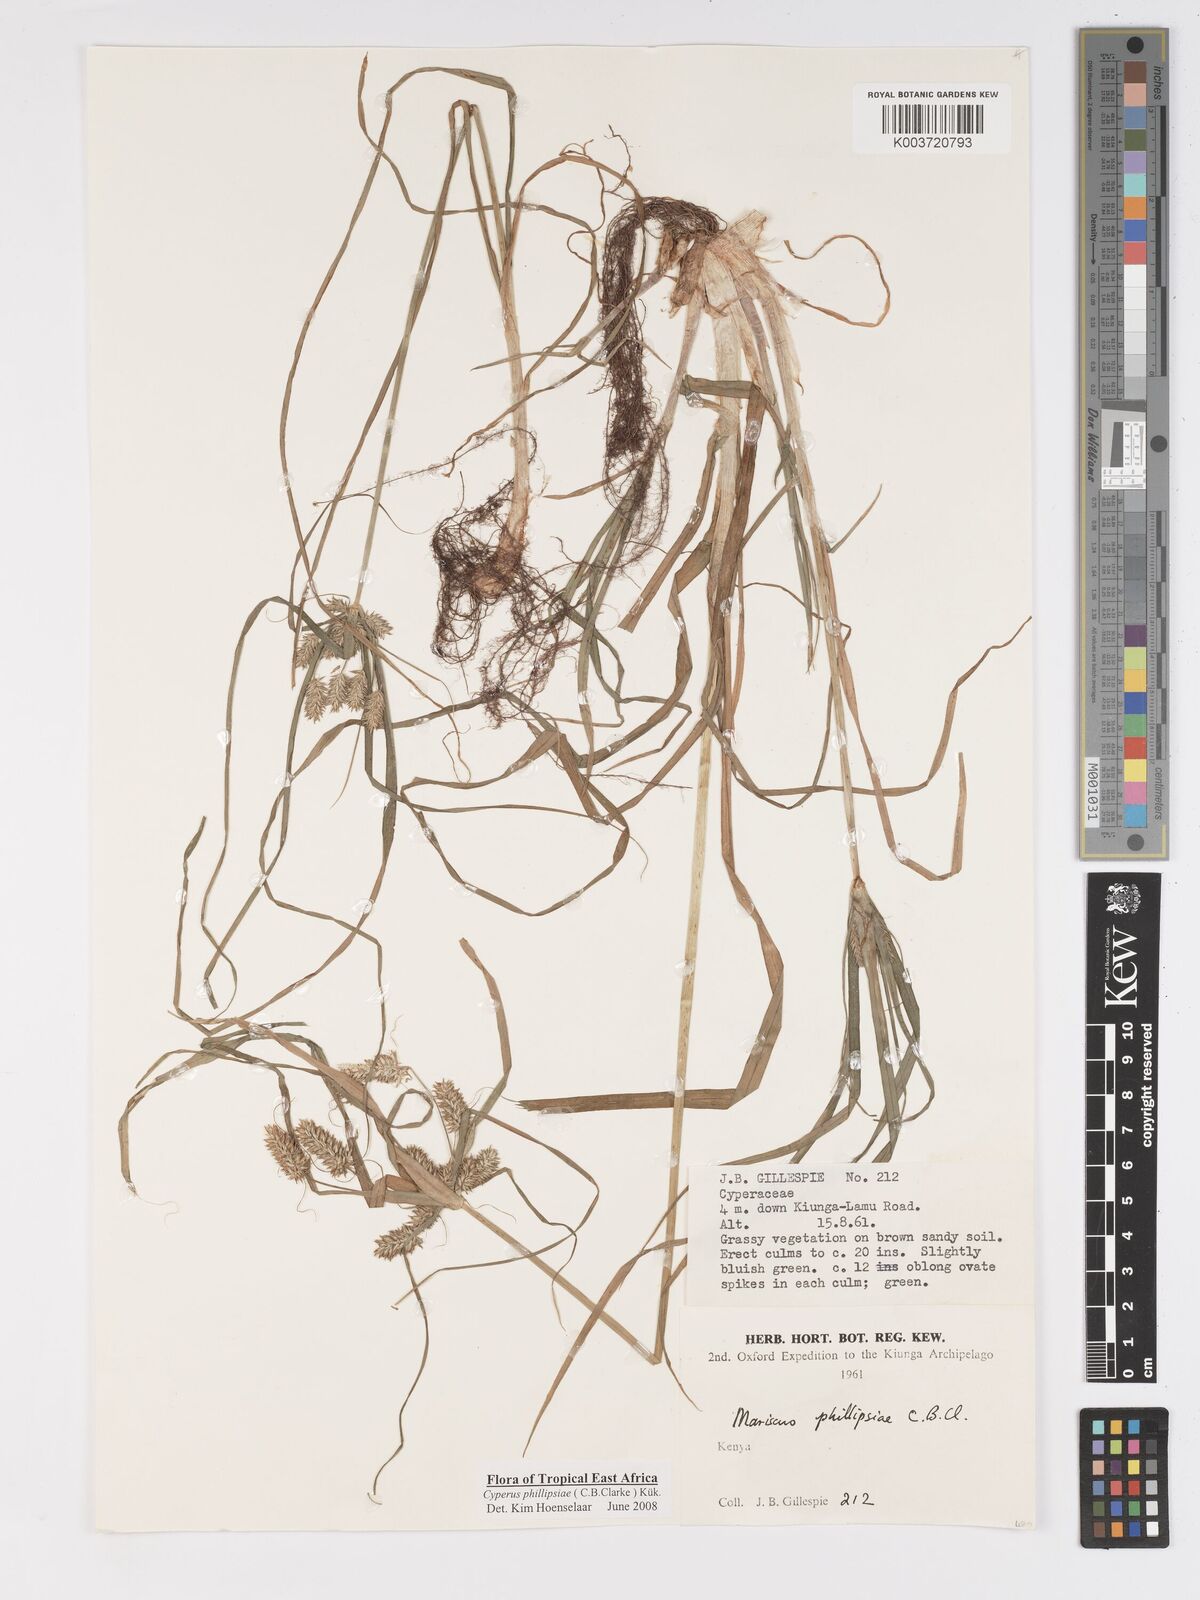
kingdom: Plantae
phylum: Tracheophyta
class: Liliopsida
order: Poales
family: Cyperaceae
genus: Cyperus
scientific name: Cyperus phillipsiae
